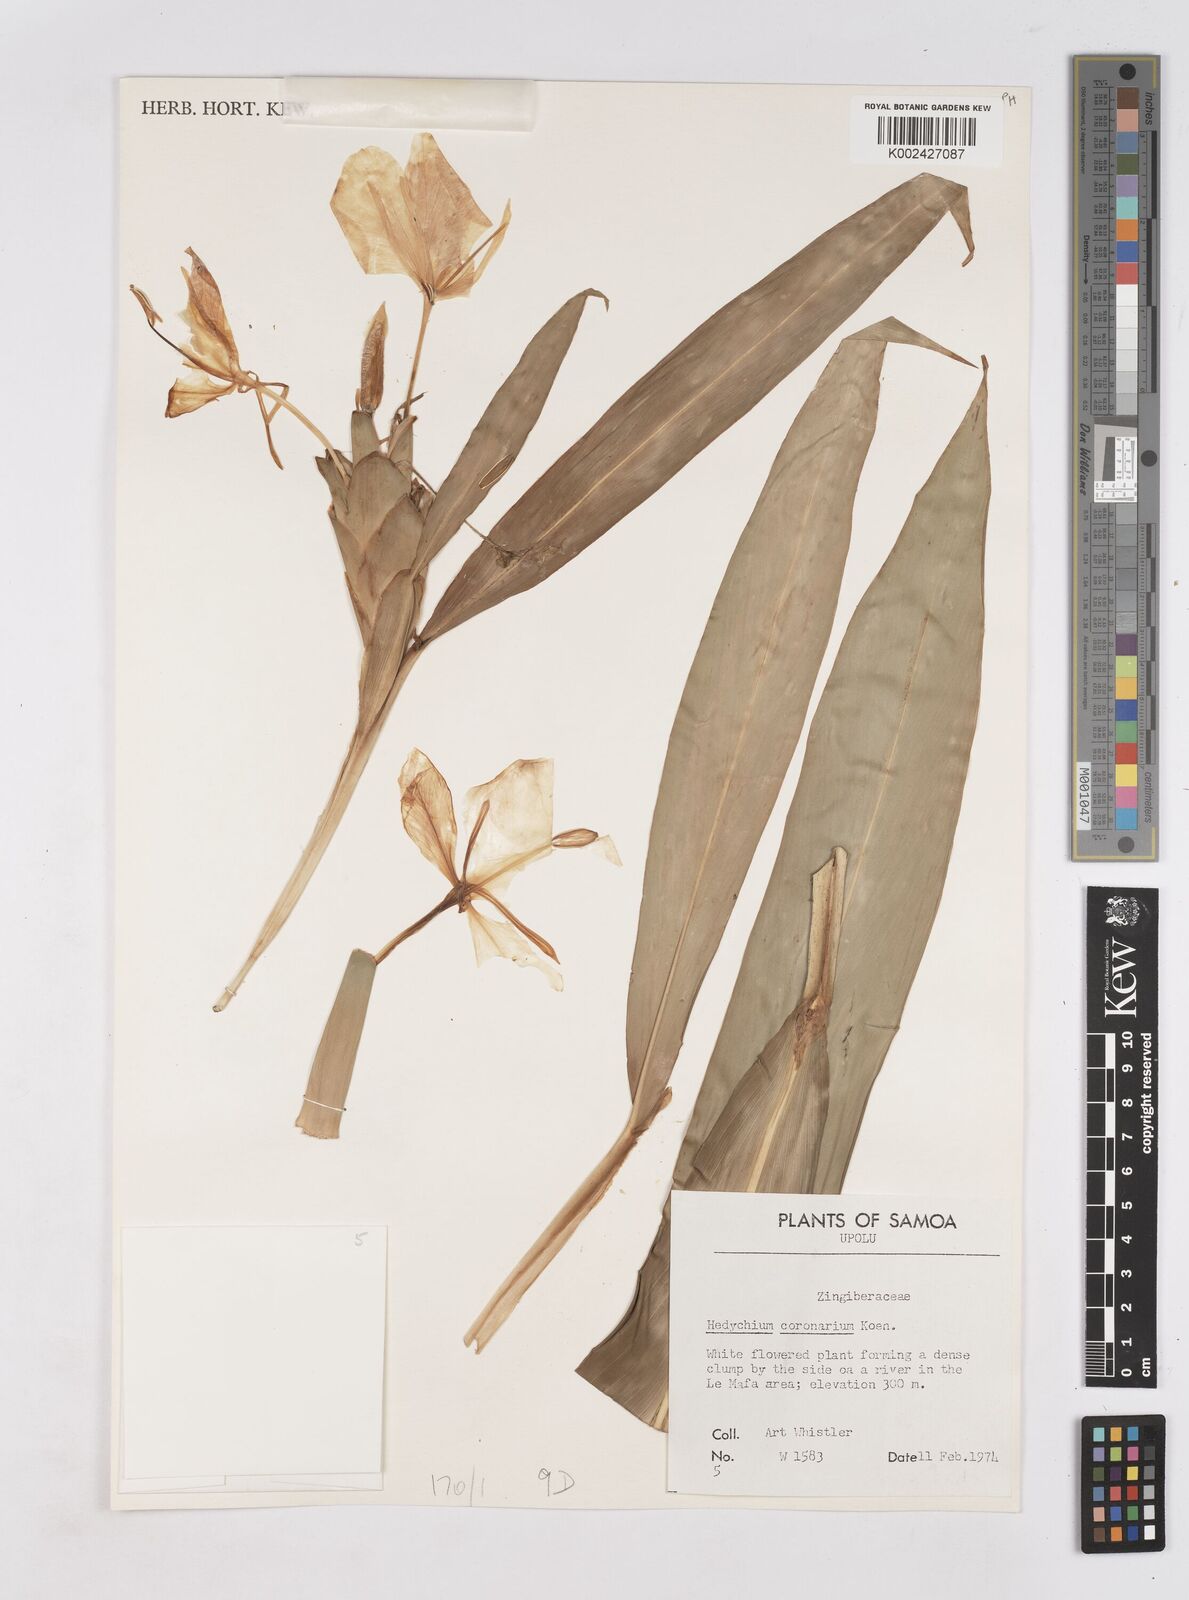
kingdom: Plantae
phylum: Tracheophyta
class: Liliopsida
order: Zingiberales
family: Zingiberaceae
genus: Hedychium
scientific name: Hedychium coronarium
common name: White garland-lily
